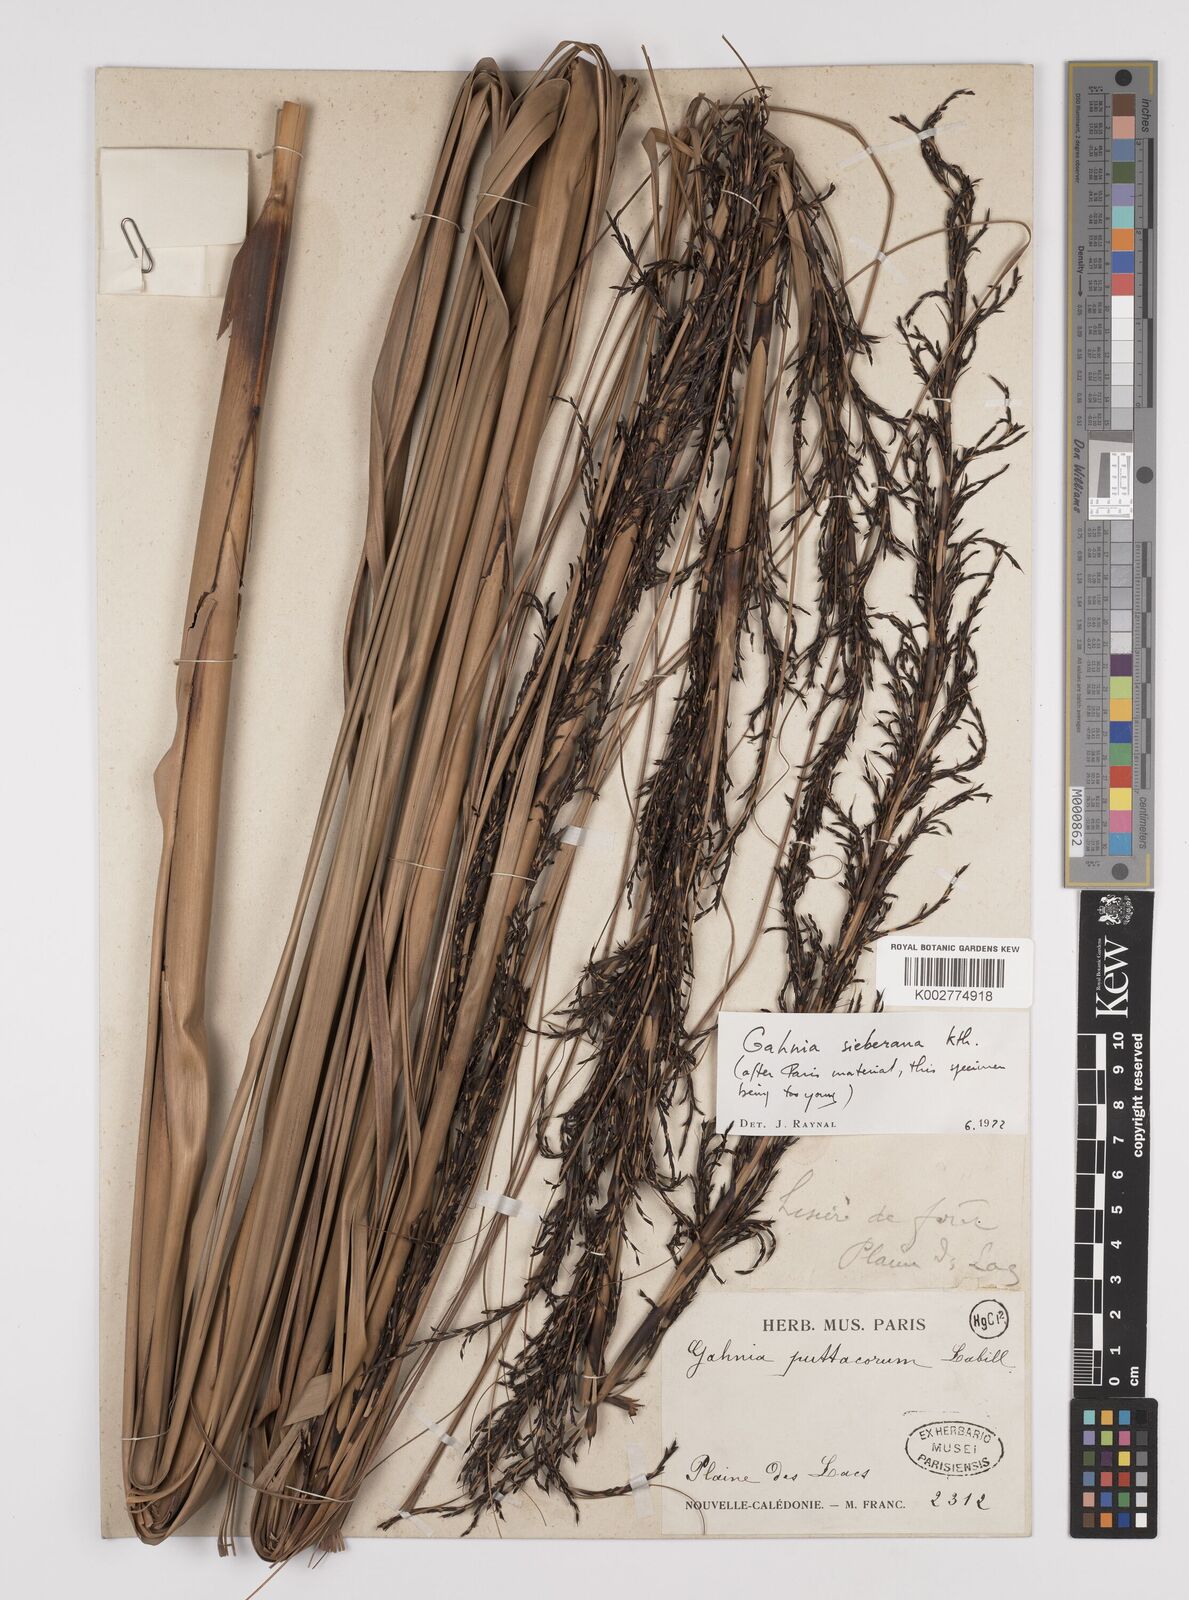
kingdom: Plantae
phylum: Tracheophyta
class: Liliopsida
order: Poales
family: Cyperaceae
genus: Gahnia
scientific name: Gahnia sieberiana
